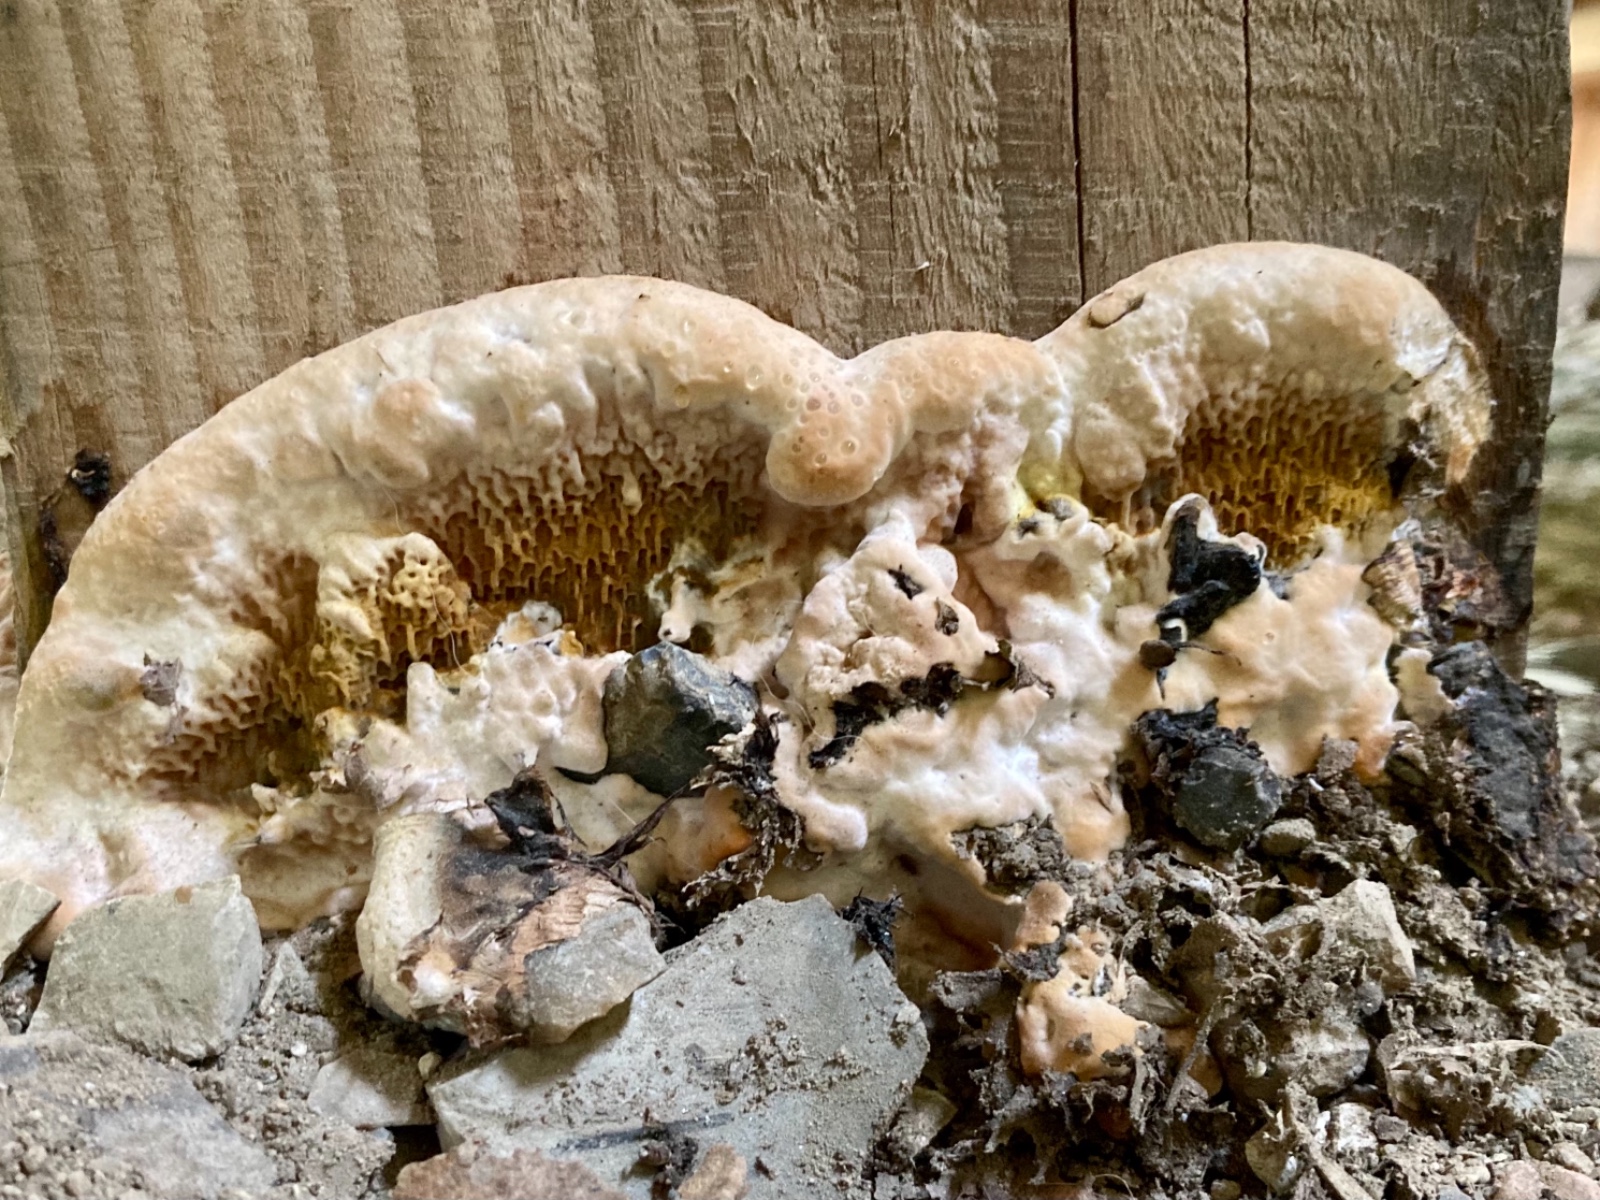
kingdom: Fungi
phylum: Basidiomycota
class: Agaricomycetes
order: Boletales
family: Serpulaceae
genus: Serpula
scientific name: Serpula lacrymans
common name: ægte hussvamp
